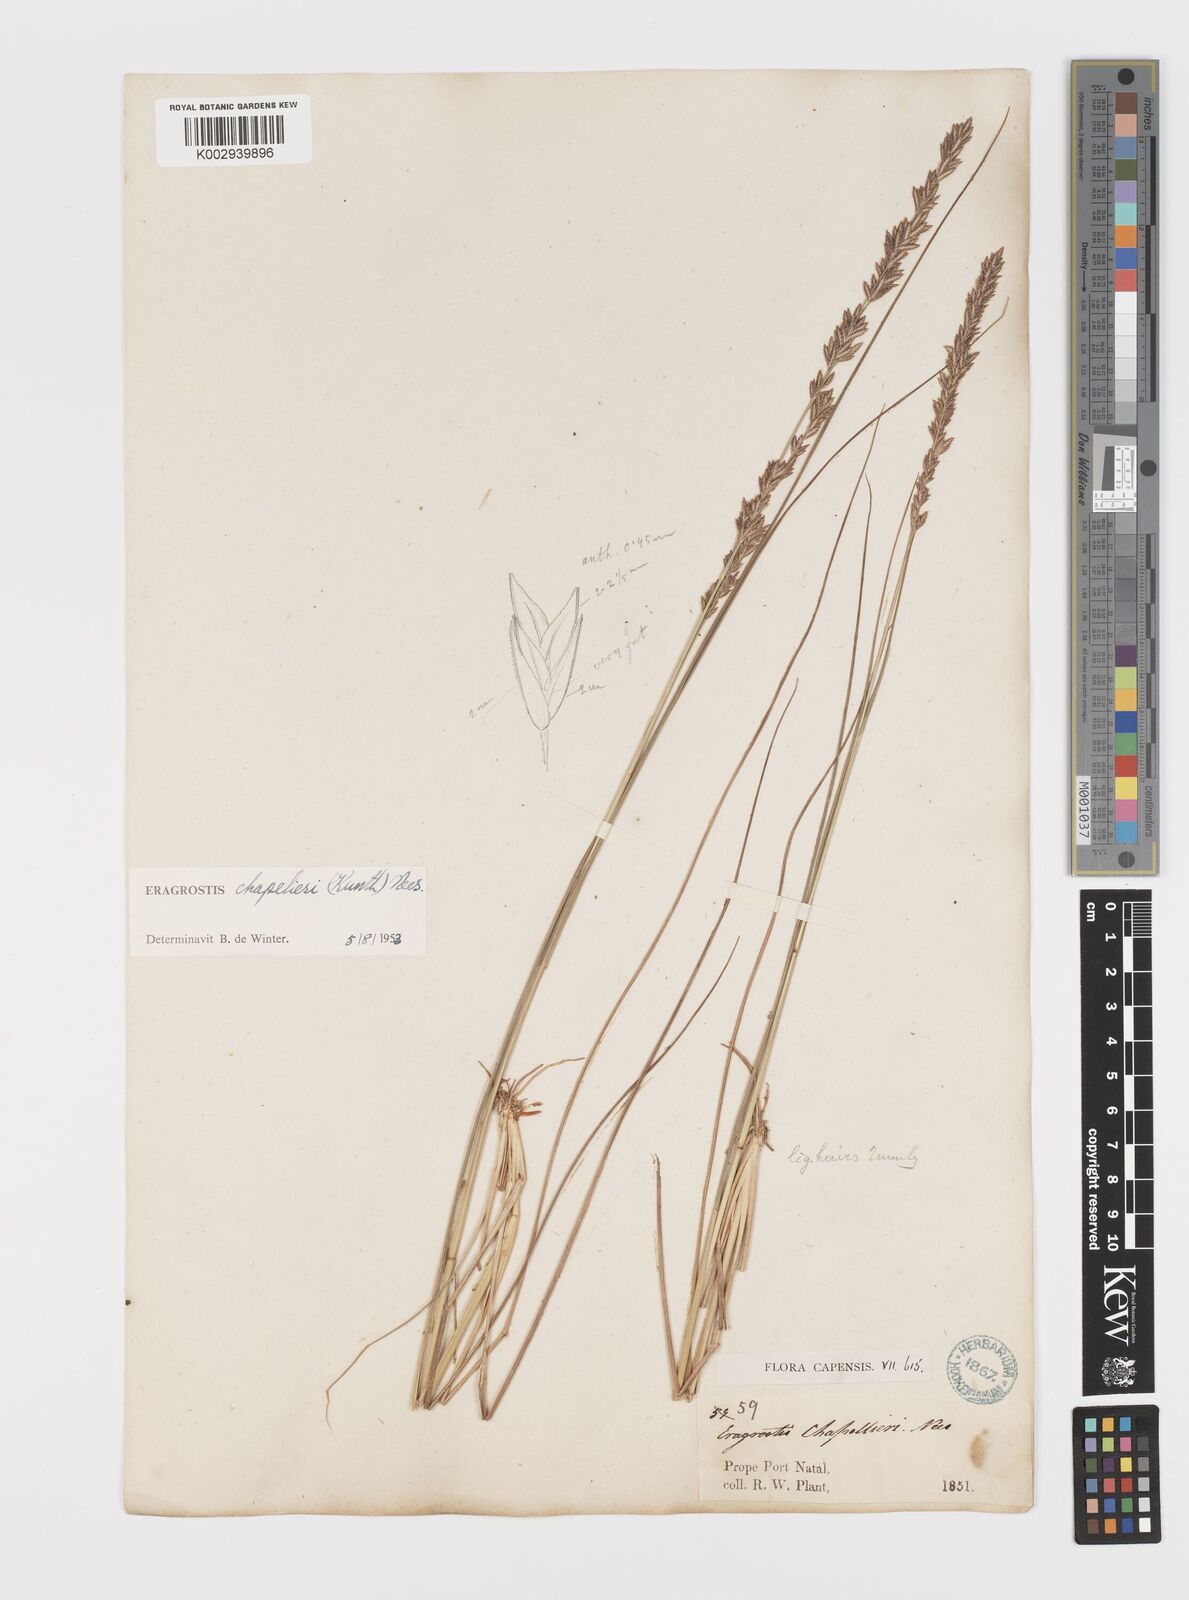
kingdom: Plantae
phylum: Tracheophyta
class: Liliopsida
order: Poales
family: Poaceae
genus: Eragrostis
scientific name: Eragrostis chapelieri
